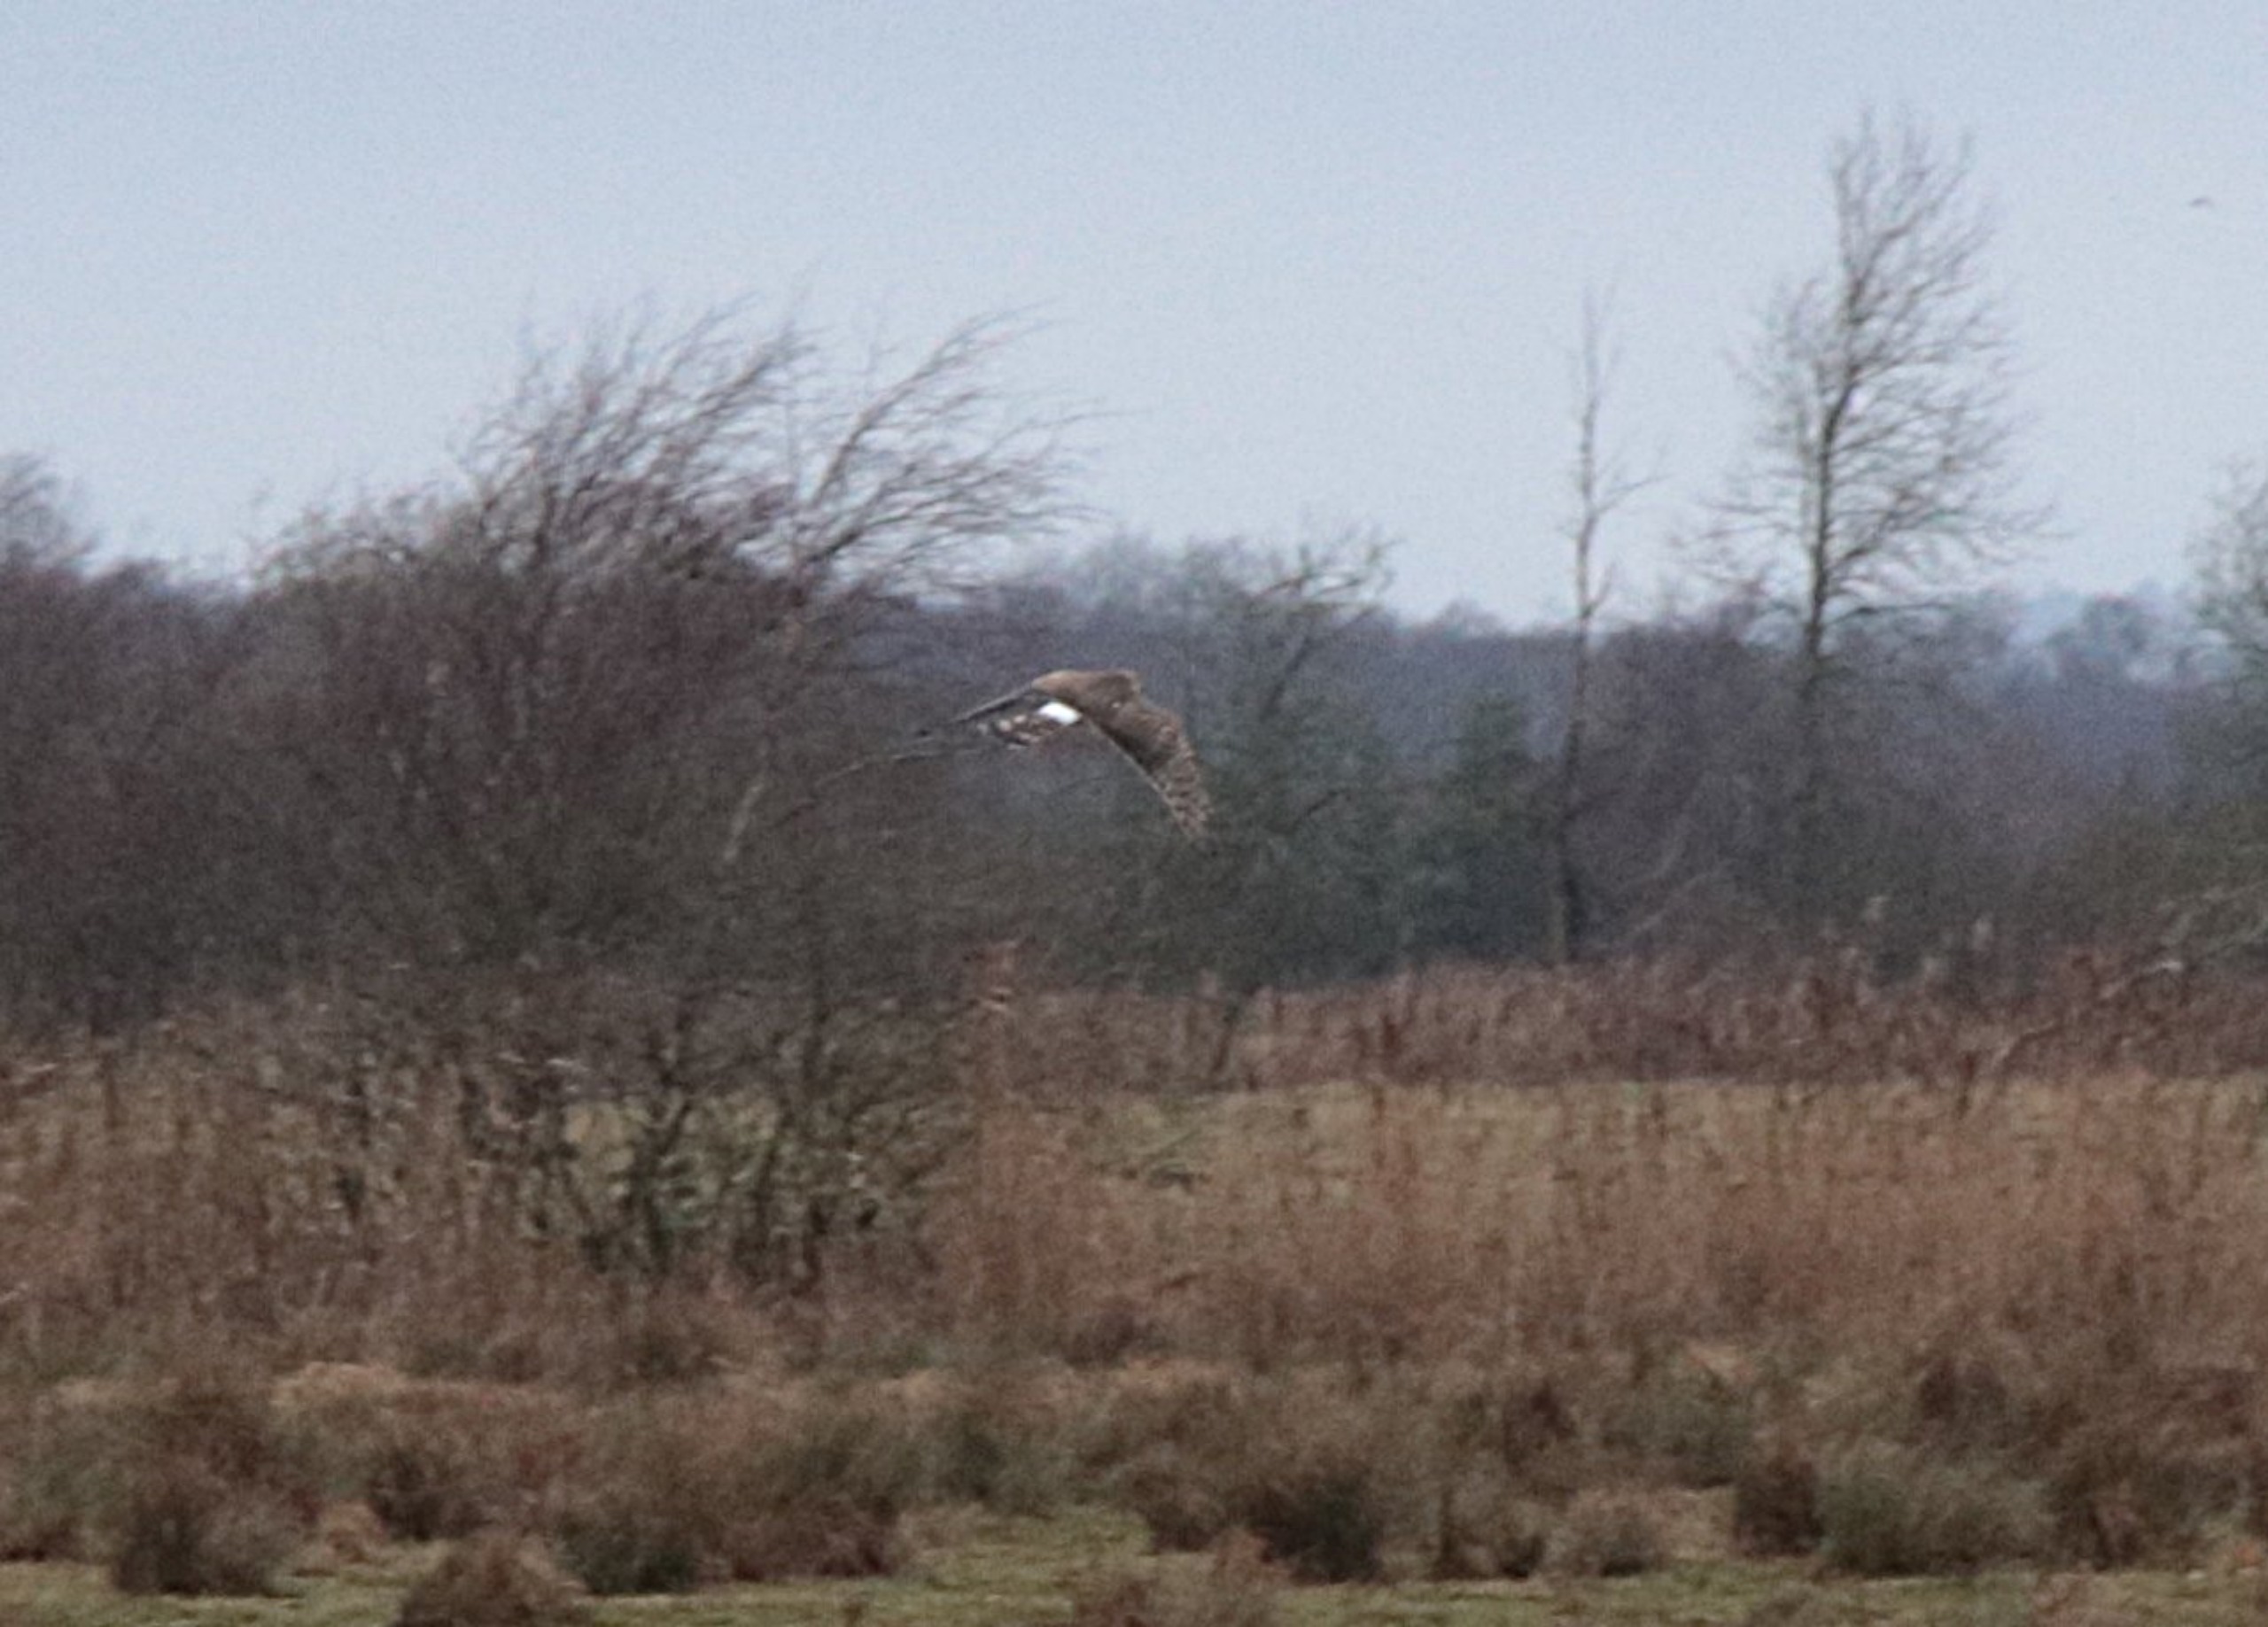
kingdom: Animalia
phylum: Chordata
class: Aves
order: Accipitriformes
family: Accipitridae
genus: Circus
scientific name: Circus cyaneus
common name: Blå kærhøg
